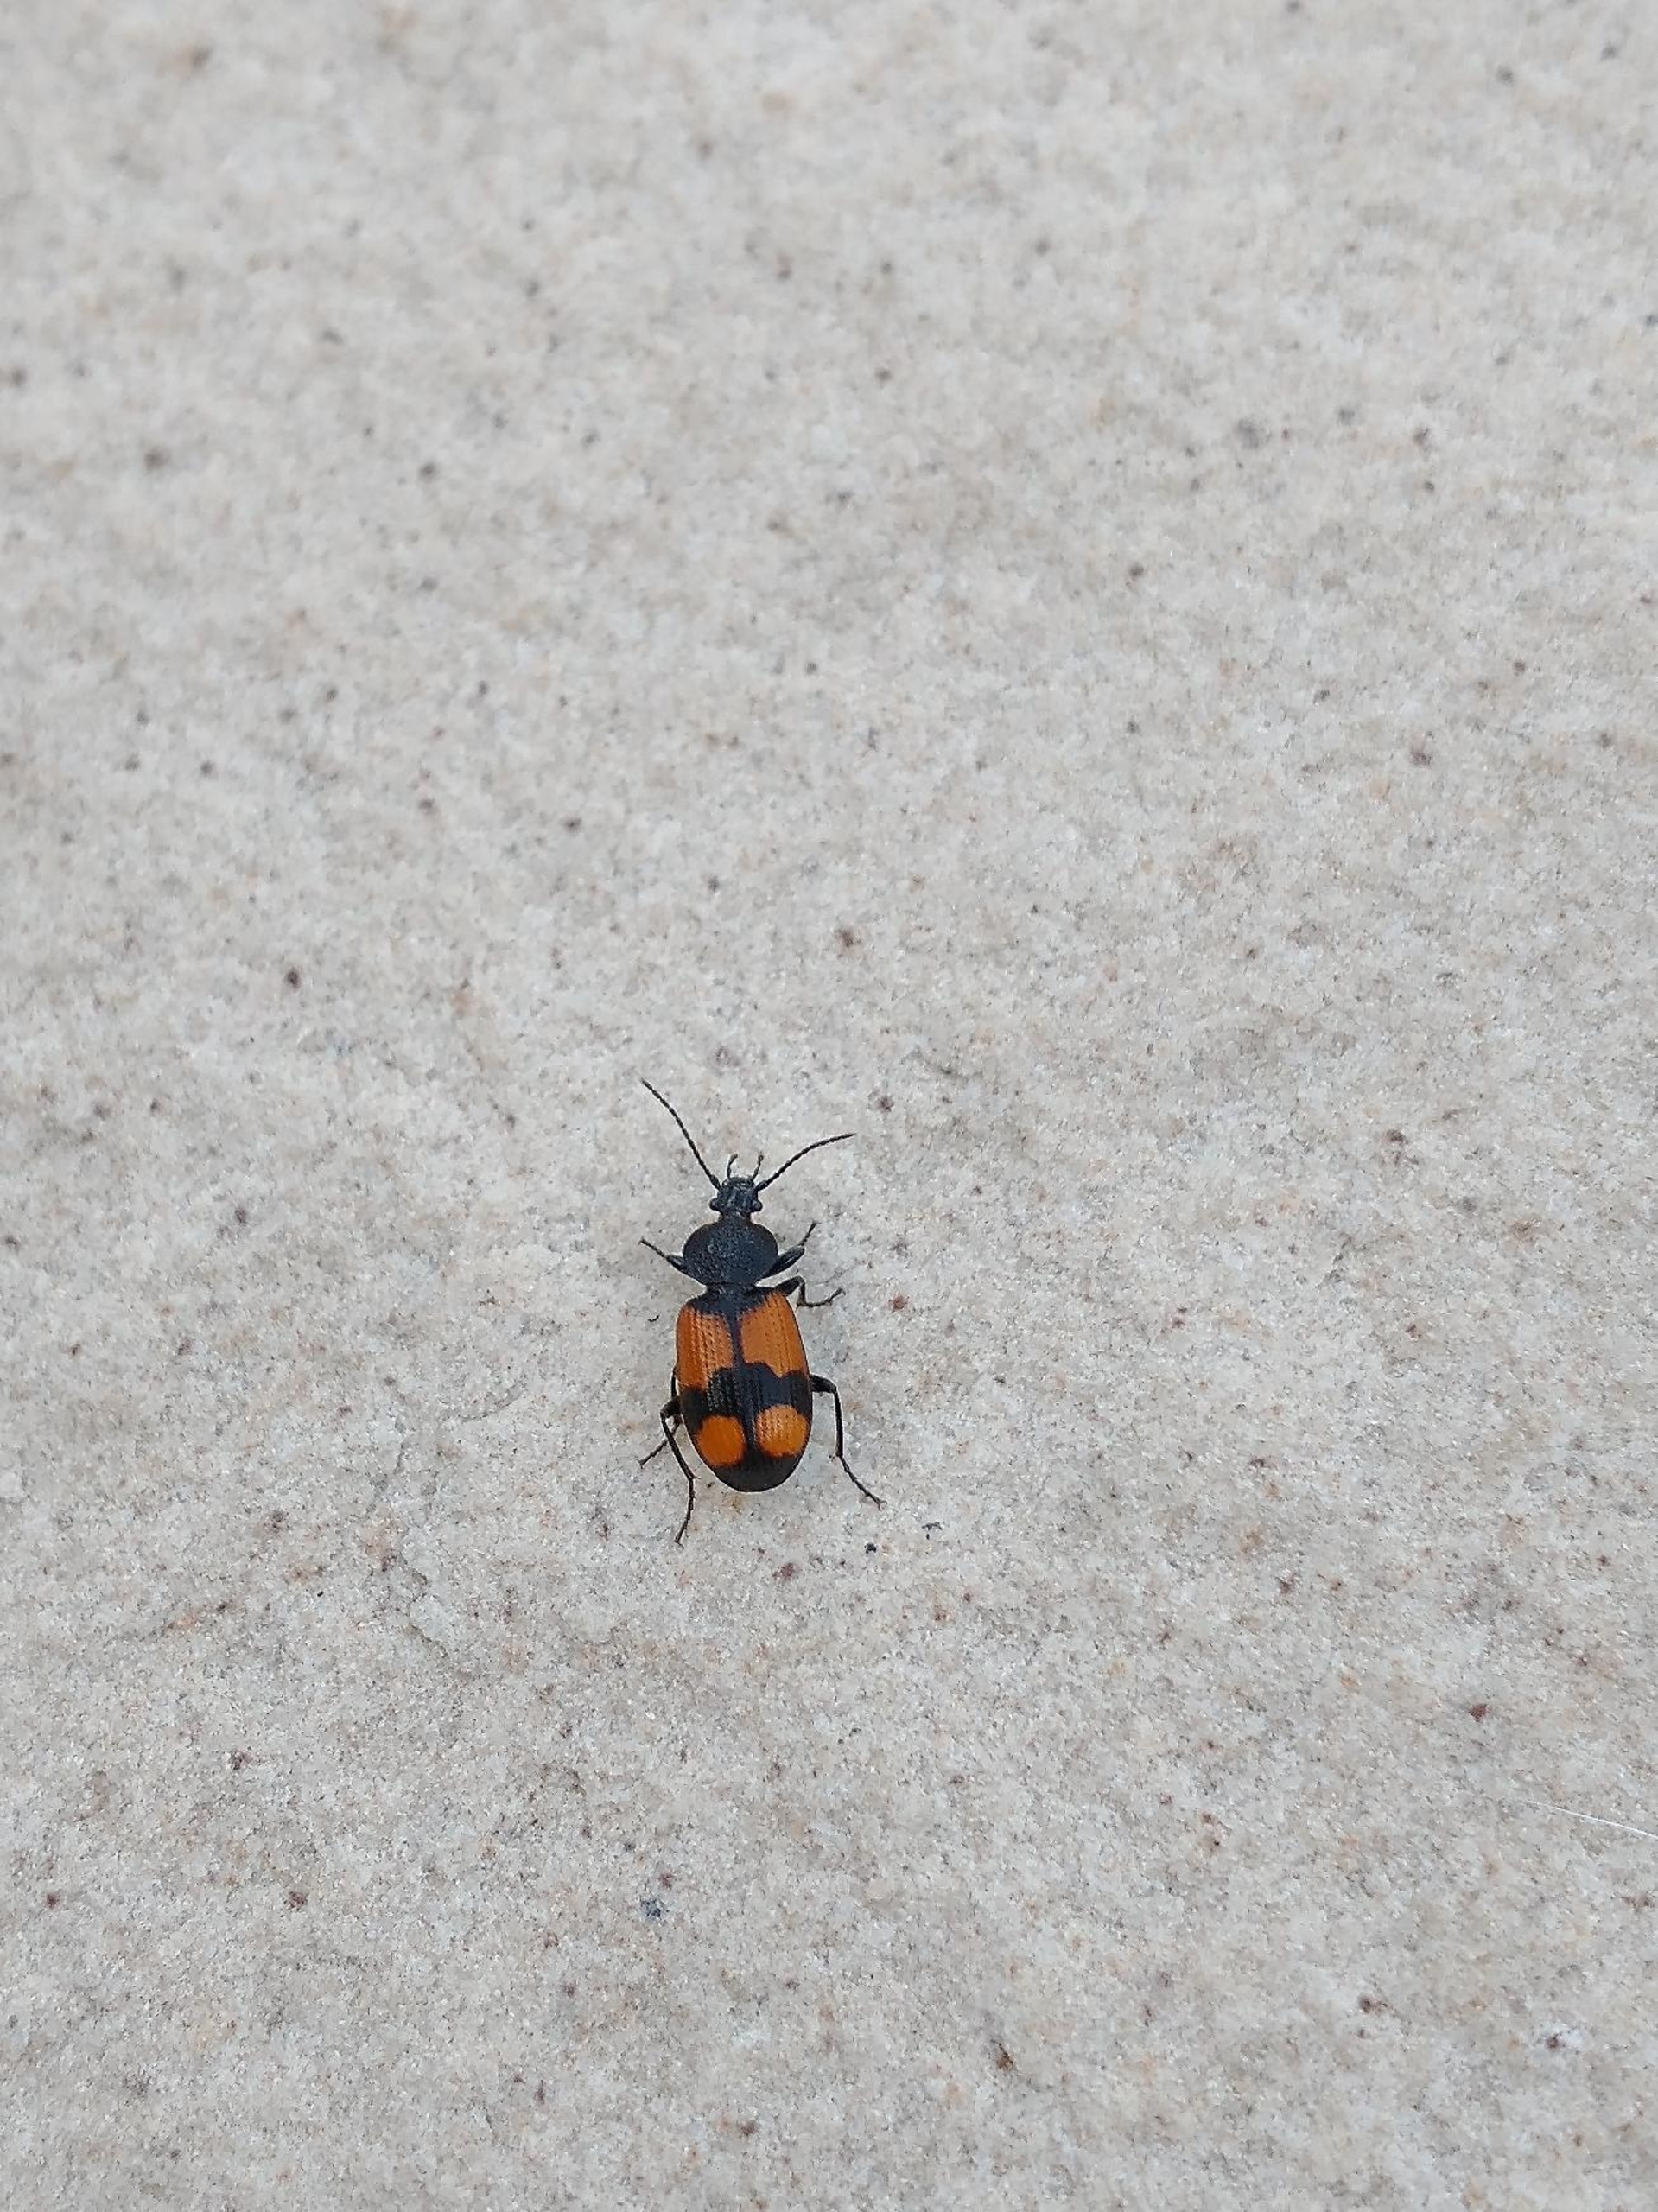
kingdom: Animalia
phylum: Arthropoda
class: Insecta
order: Coleoptera
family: Carabidae
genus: Panagaeus
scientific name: Panagaeus cruxmajor
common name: Stor korsløber
